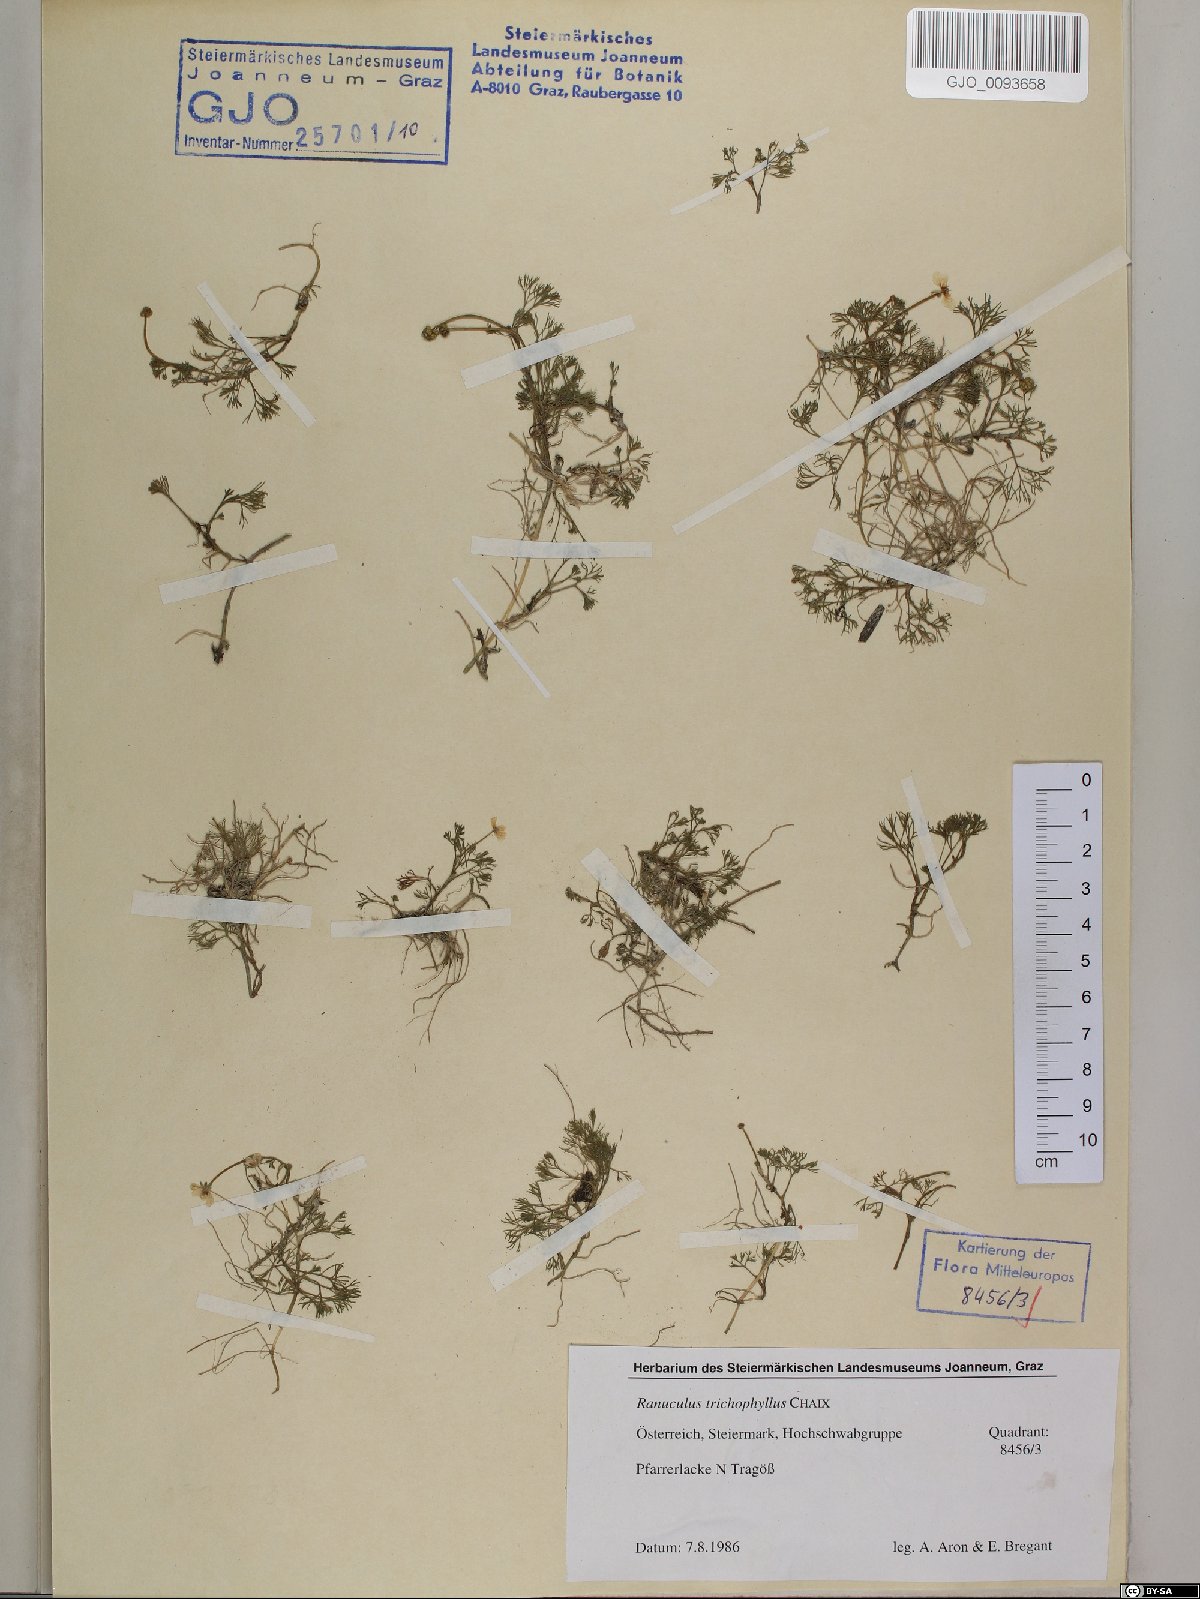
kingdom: Plantae
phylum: Tracheophyta
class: Magnoliopsida
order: Ranunculales
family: Ranunculaceae
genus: Ranunculus
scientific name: Ranunculus trichophyllus
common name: Thread-leaved water-crowfoot
